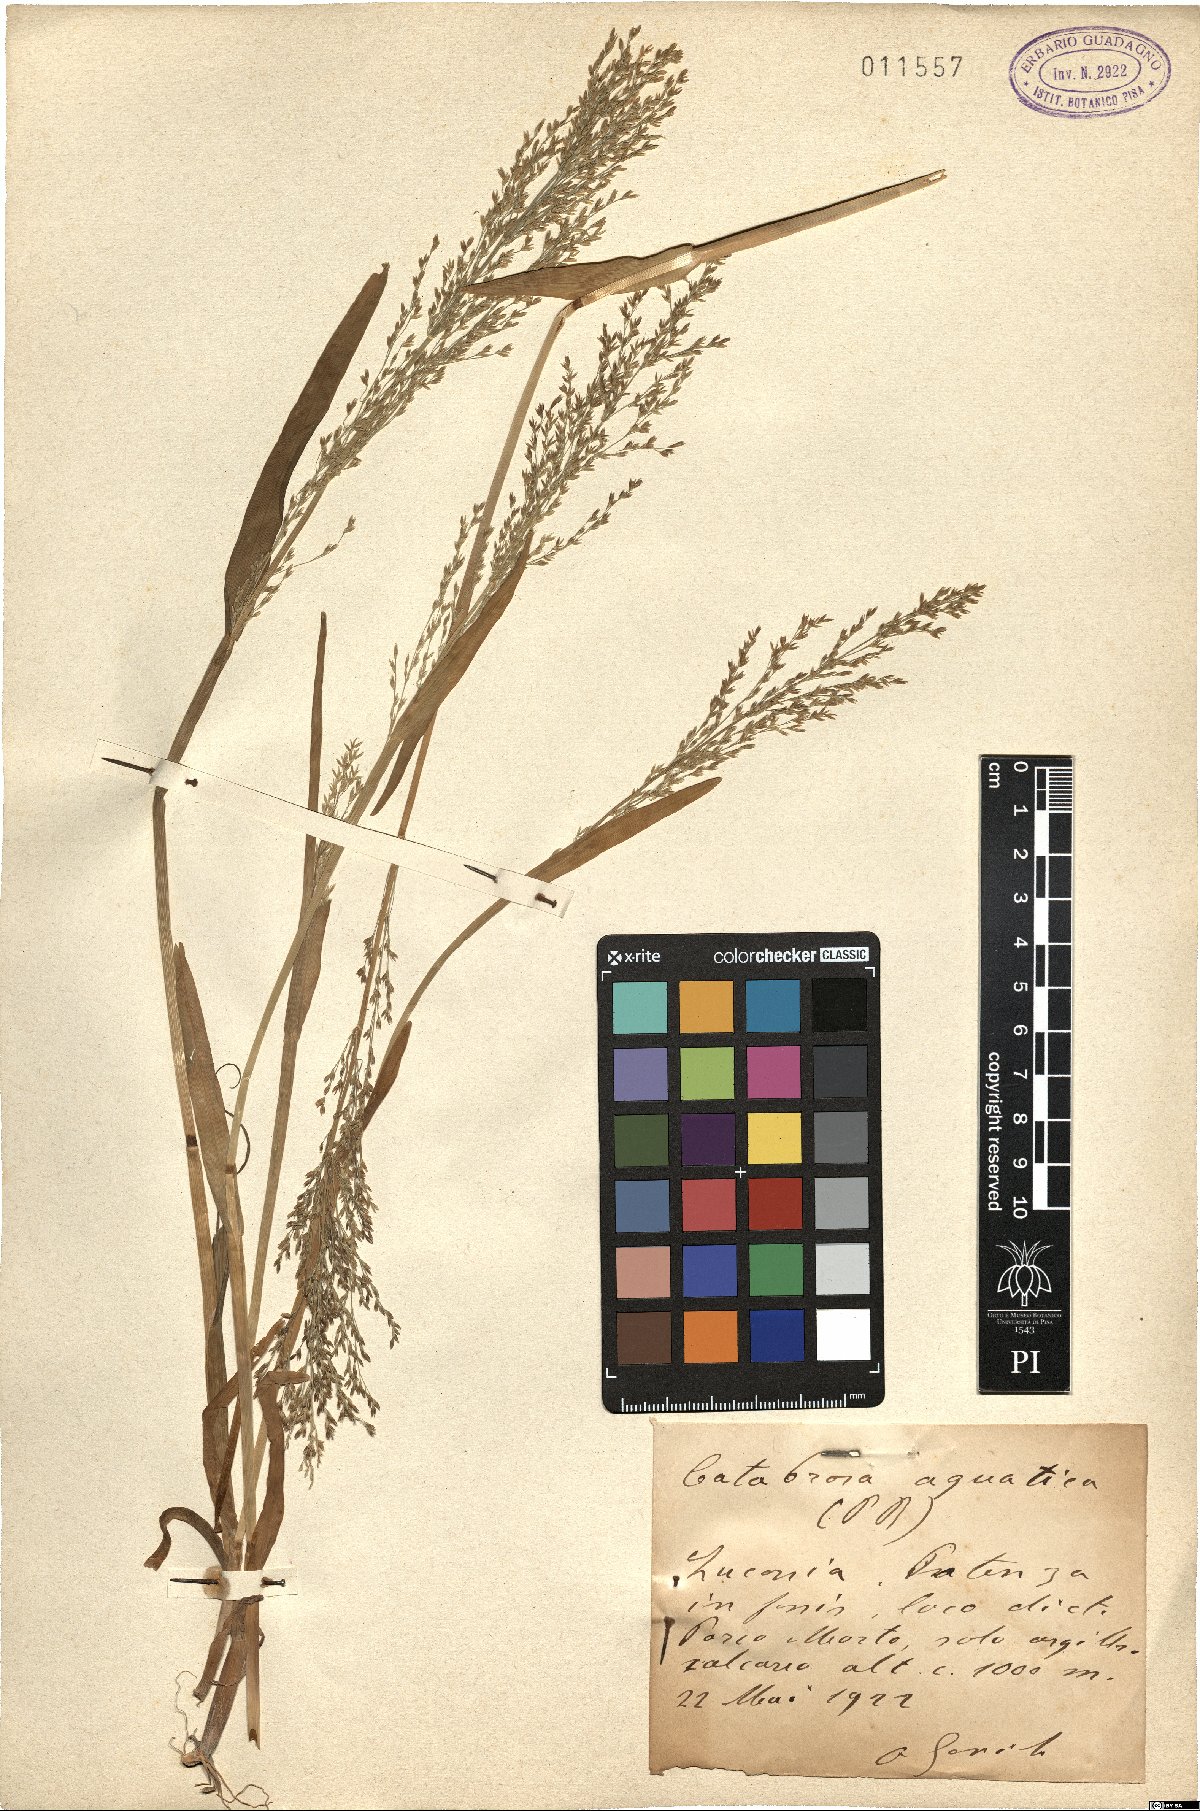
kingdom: Plantae
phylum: Tracheophyta
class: Liliopsida
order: Poales
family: Poaceae
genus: Catabrosa
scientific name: Catabrosa aquatica
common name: Whorl-grass
